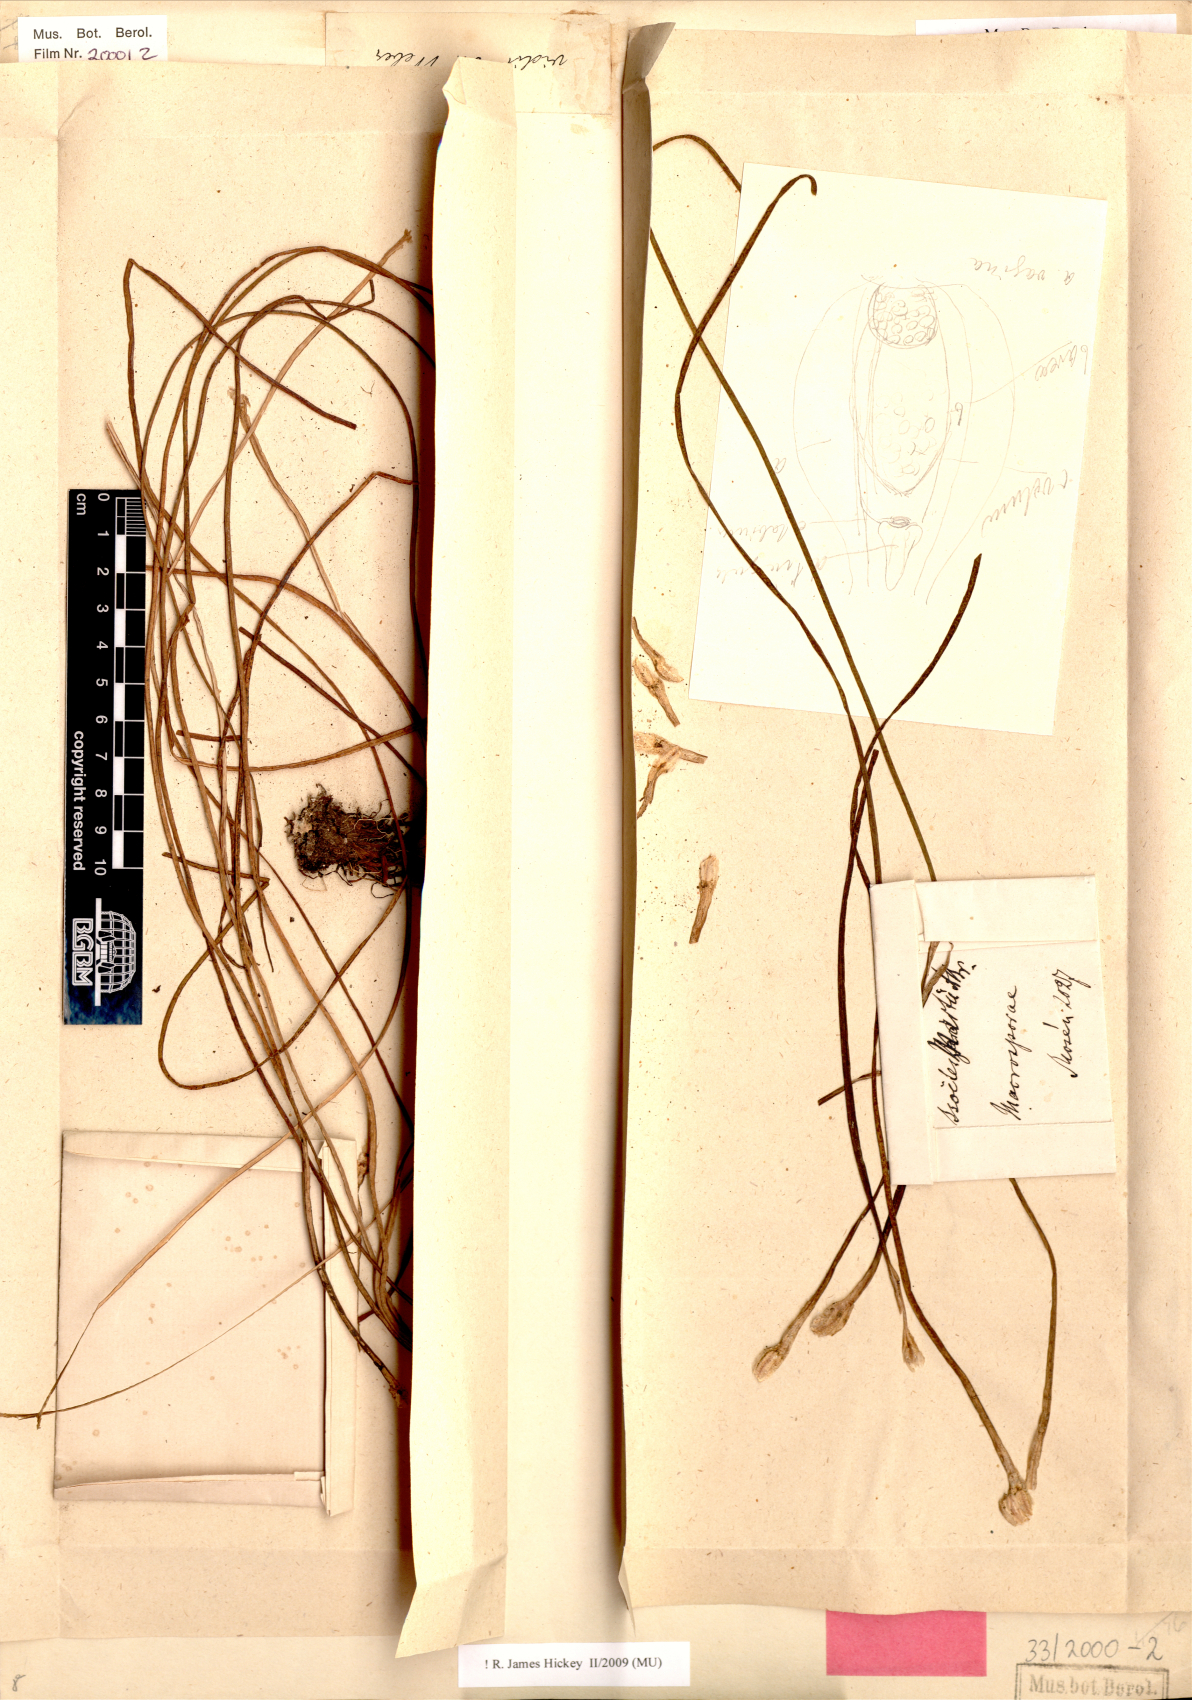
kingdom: Plantae
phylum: Tracheophyta
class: Lycopodiopsida
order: Isoetales
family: Isoetaceae
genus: Isoetes
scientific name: Isoetes martii
